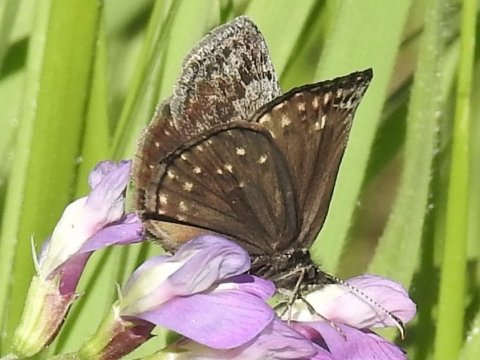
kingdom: Animalia
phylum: Arthropoda
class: Insecta
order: Lepidoptera
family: Hesperiidae
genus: Erynnis
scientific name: Erynnis icelus
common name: Dreamy Duskywing
